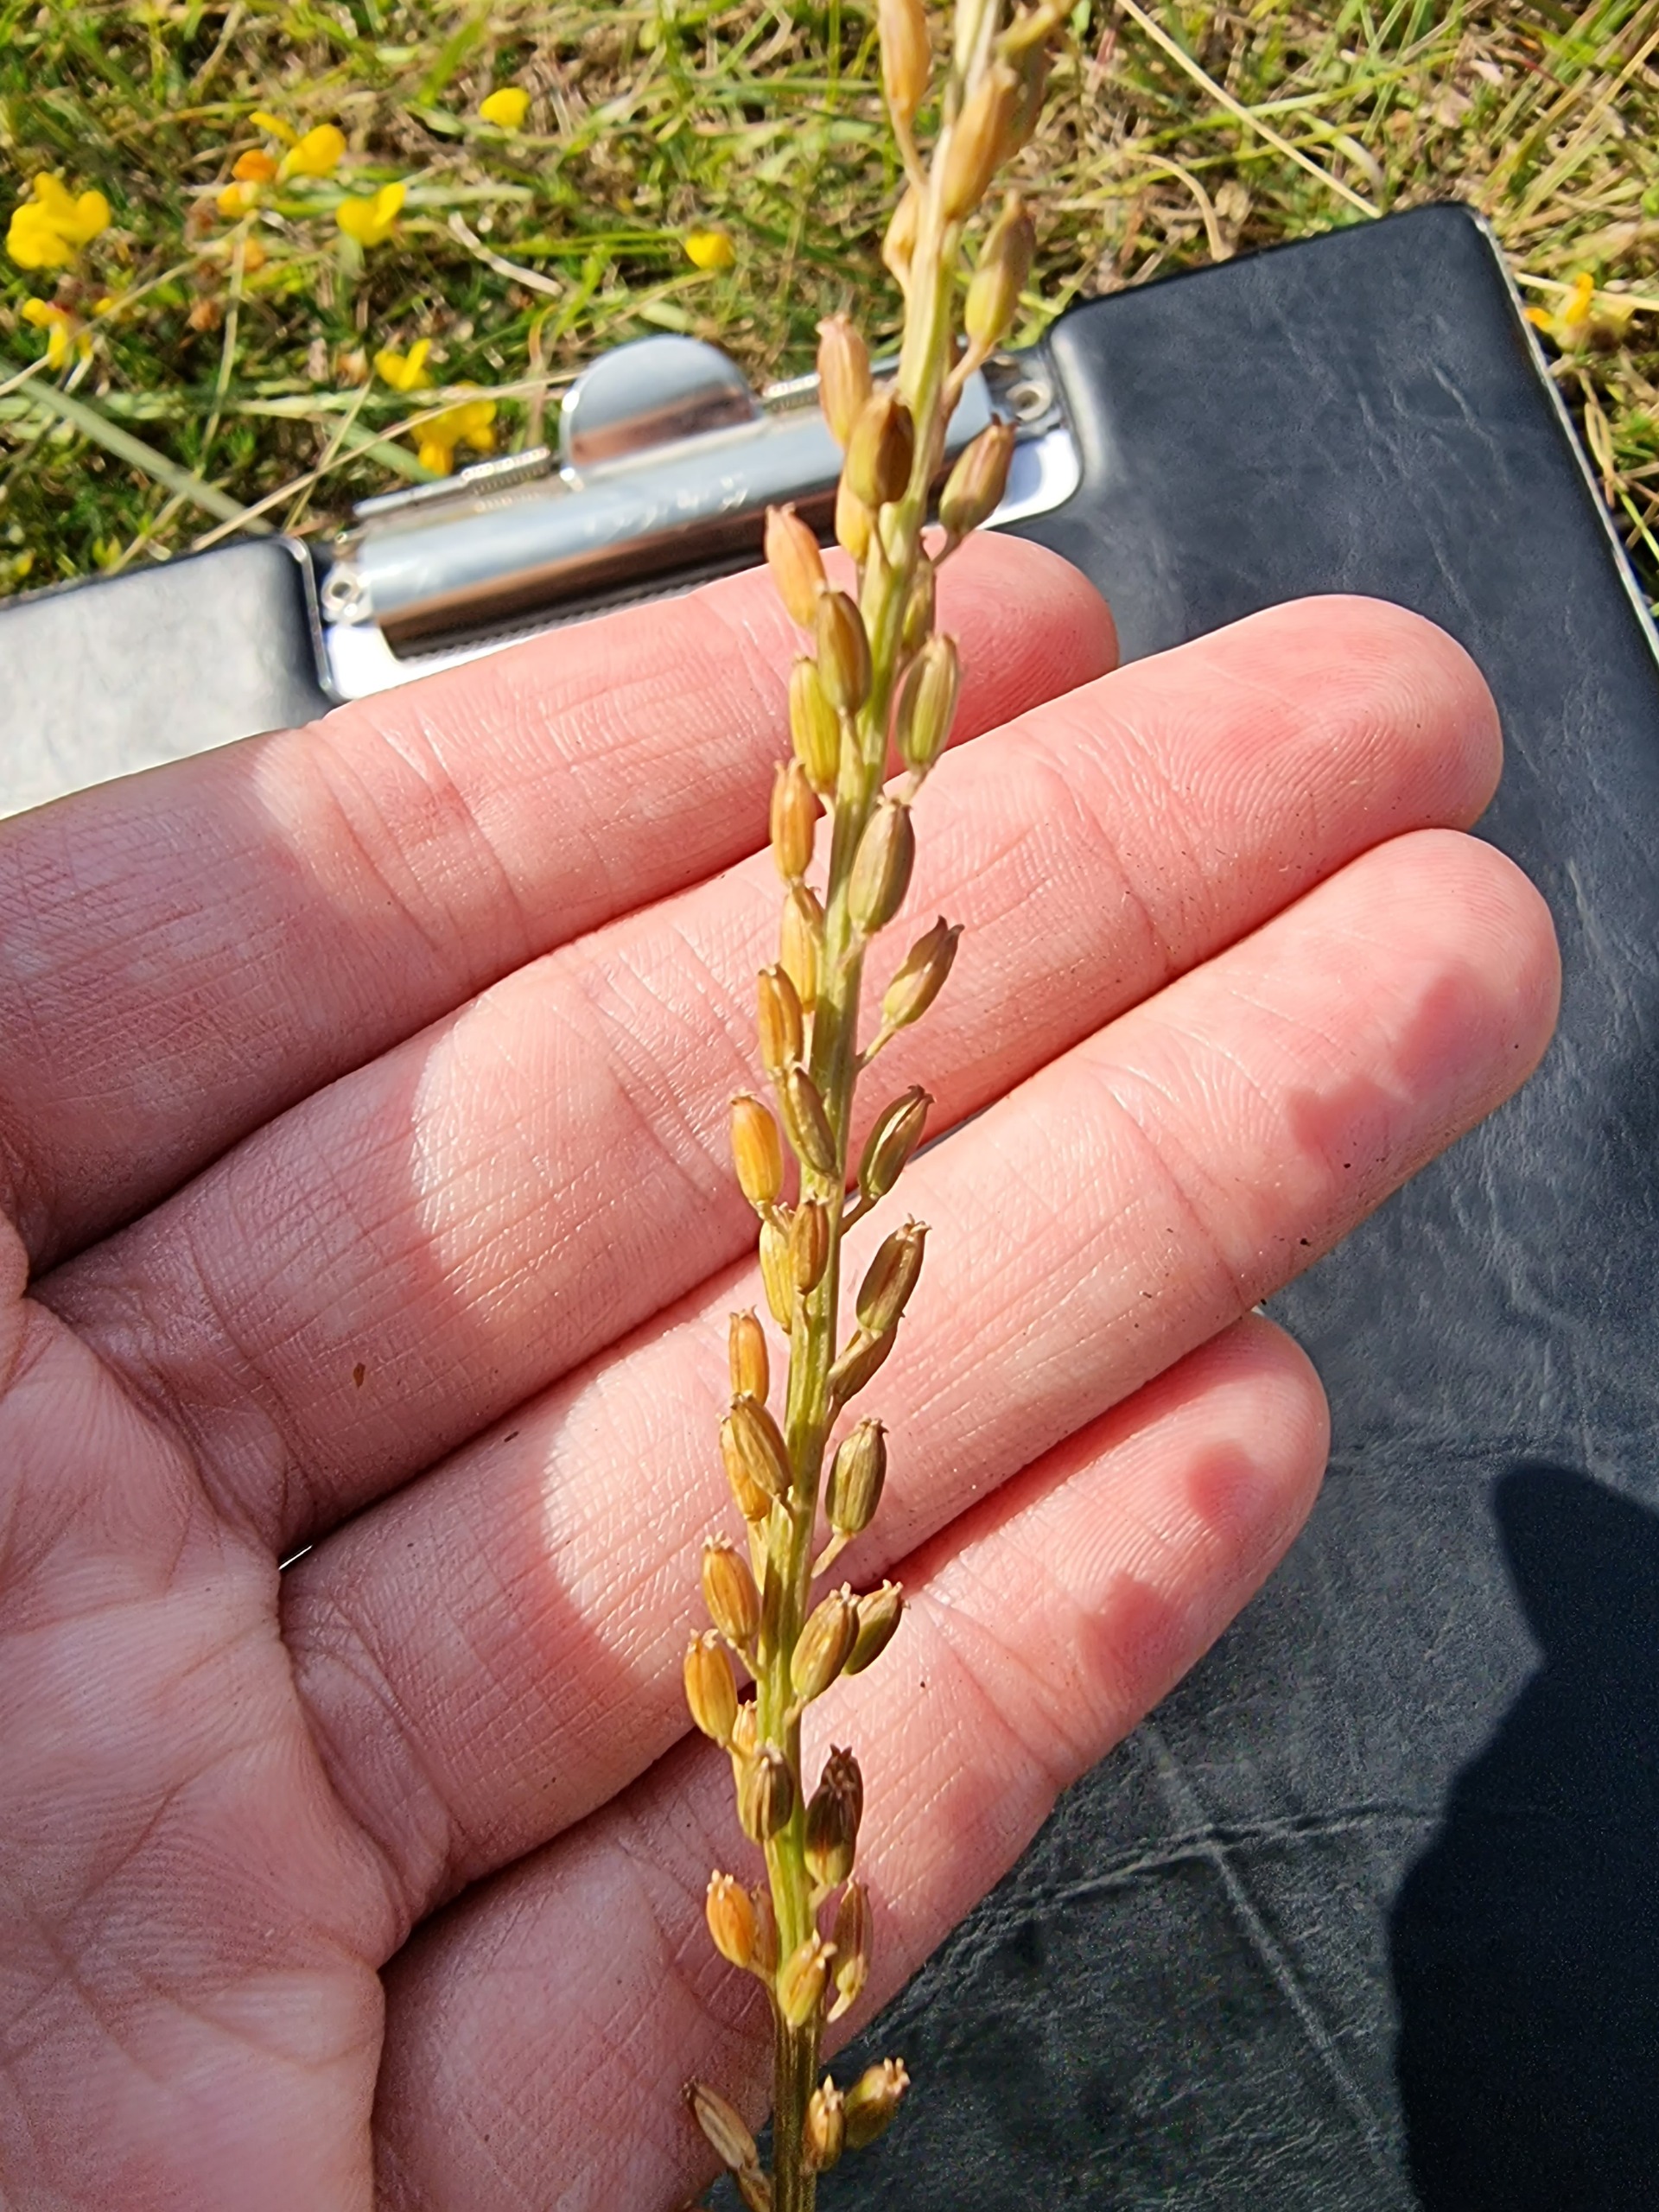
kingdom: Plantae
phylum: Tracheophyta
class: Liliopsida
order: Alismatales
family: Juncaginaceae
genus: Triglochin
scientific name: Triglochin maritima
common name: Strand-trehage
